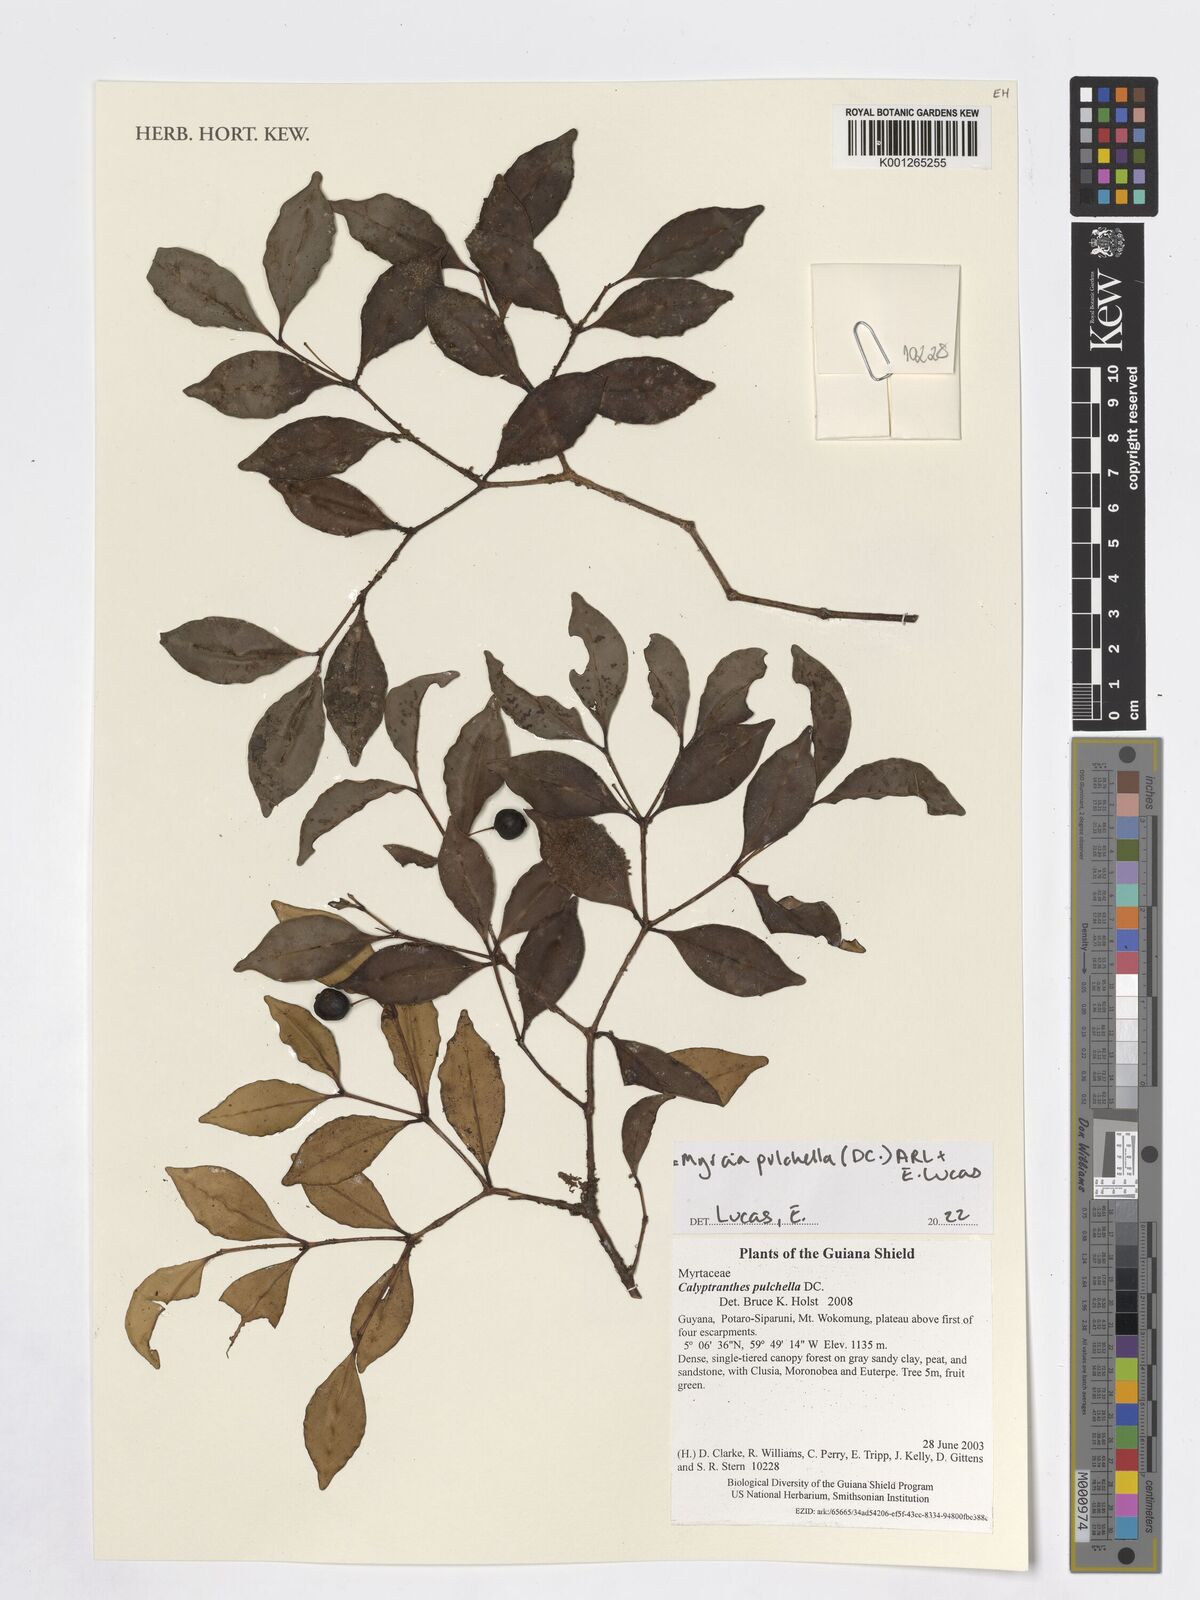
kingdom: Plantae
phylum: Tracheophyta
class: Magnoliopsida
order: Myrtales
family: Myrtaceae
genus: Myrcia
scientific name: Myrcia pulchella
